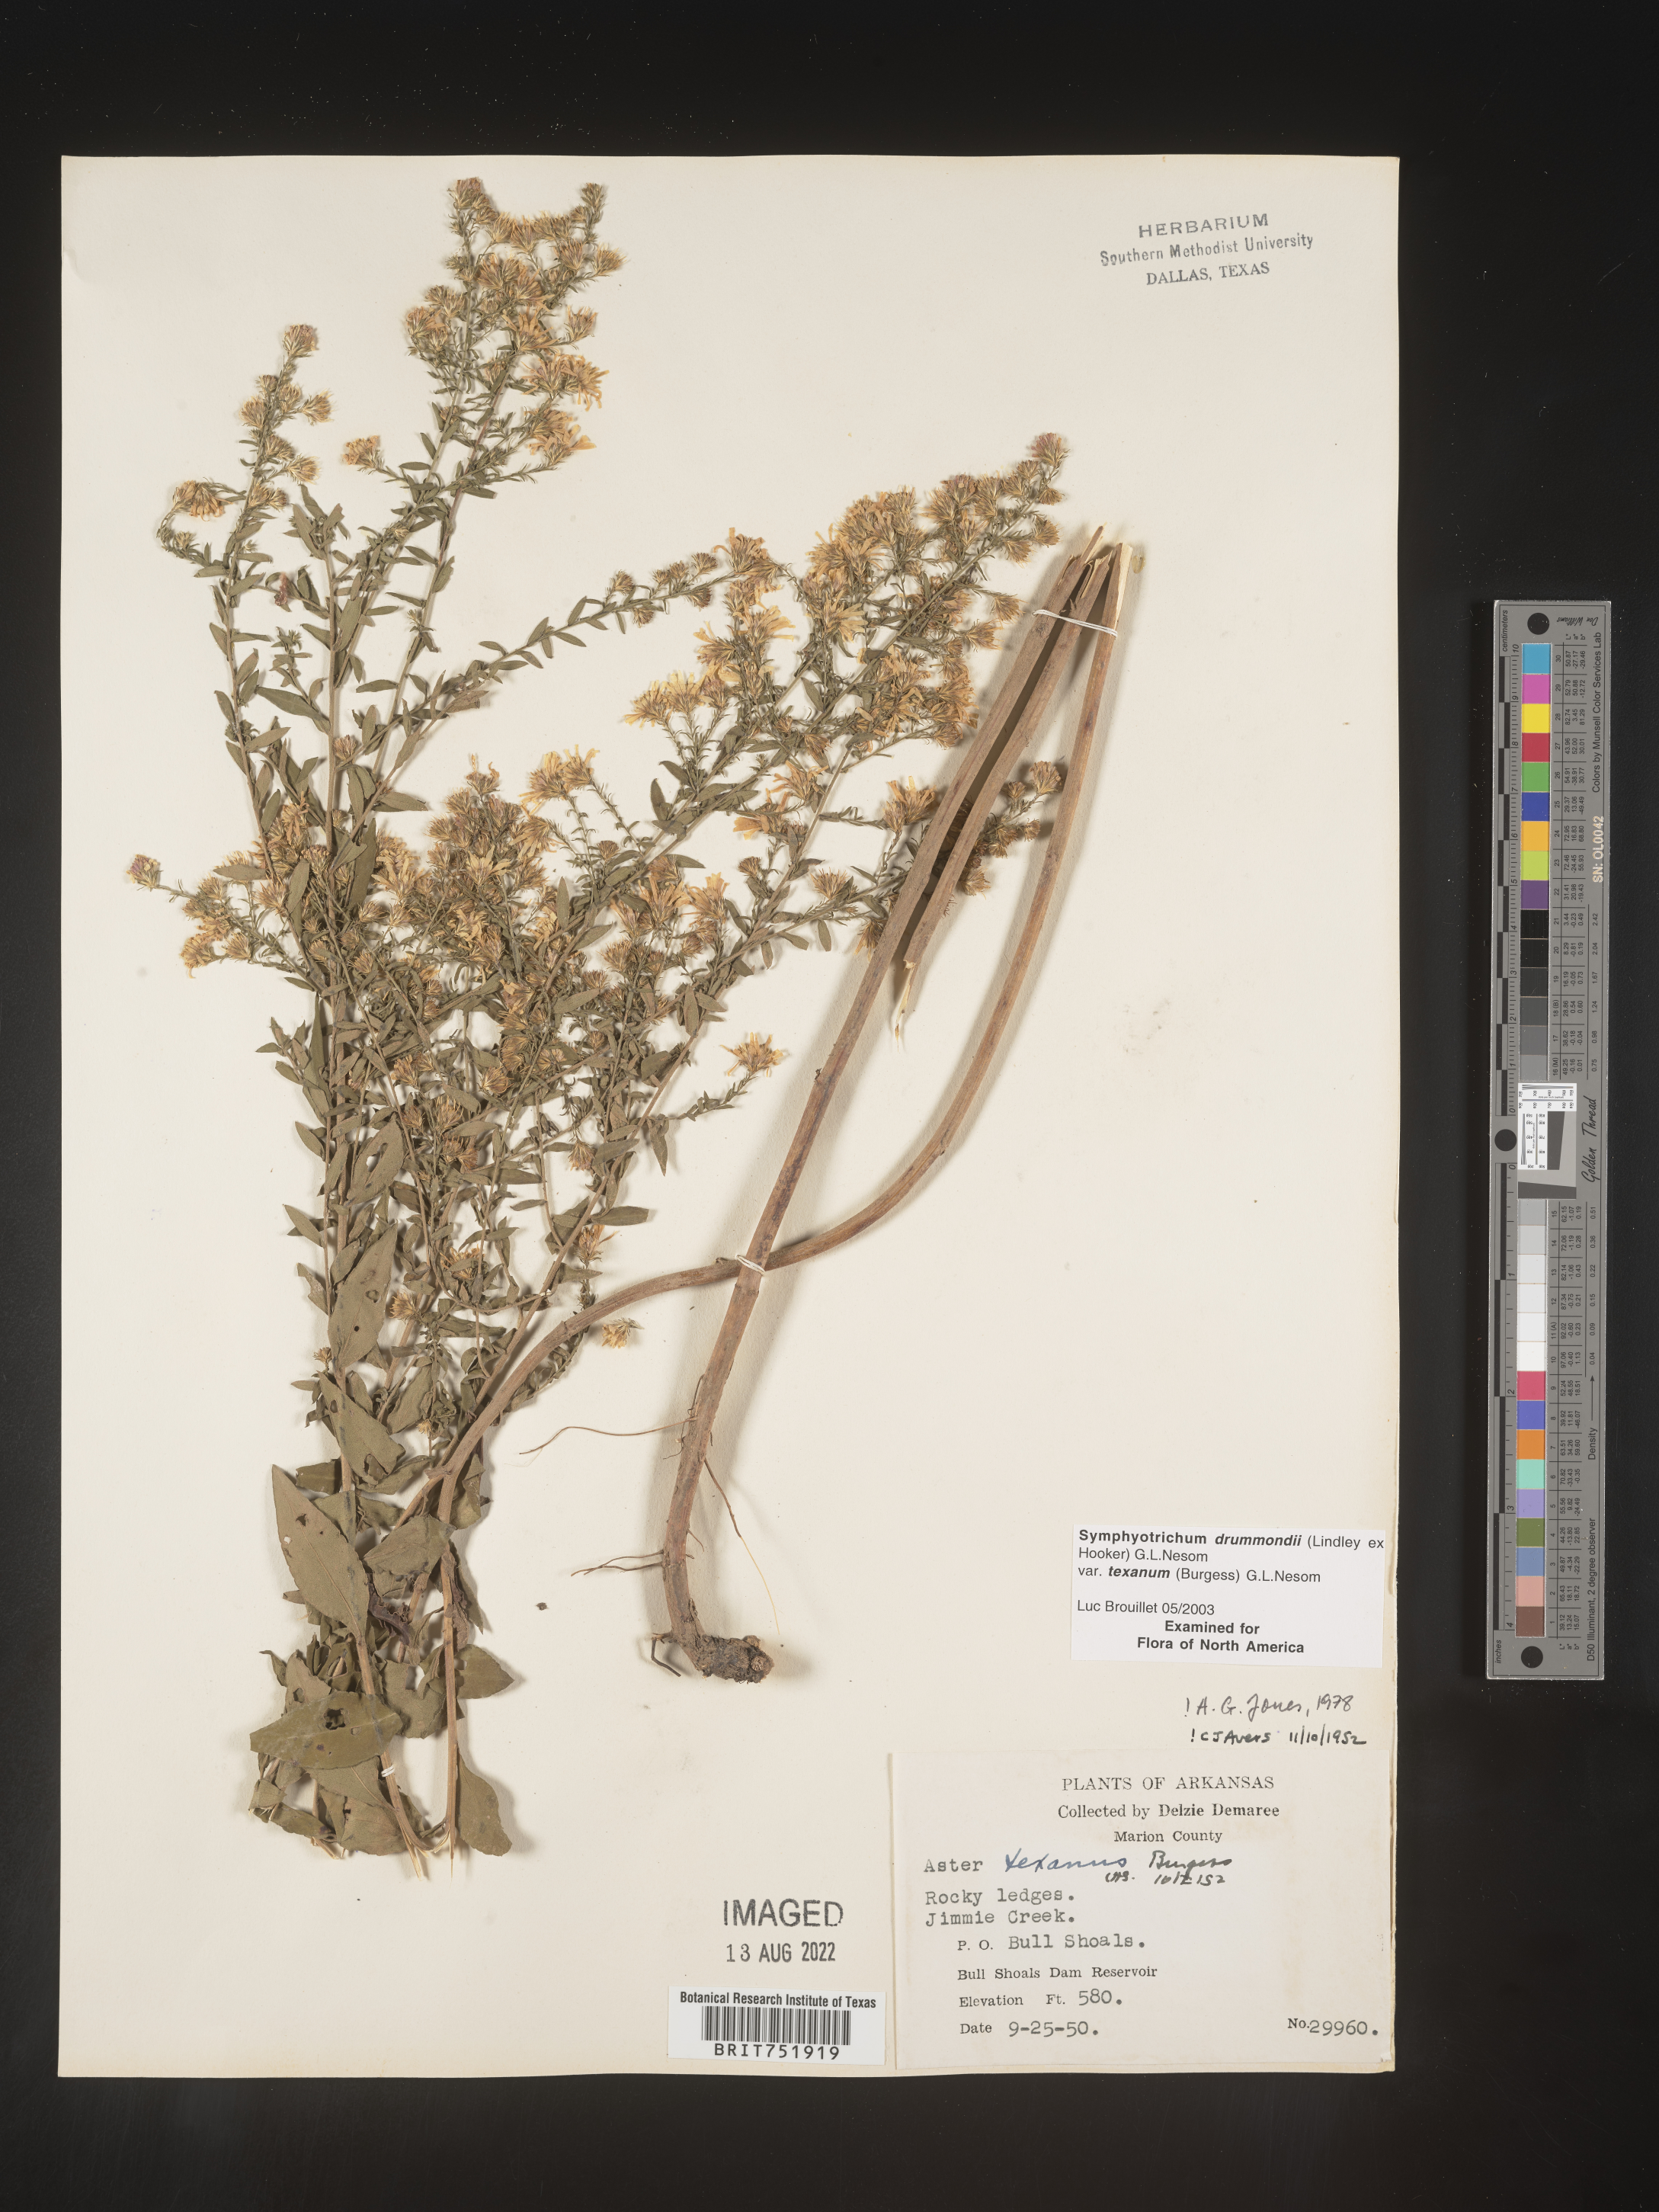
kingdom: Plantae
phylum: Tracheophyta
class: Magnoliopsida
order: Asterales
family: Asteraceae
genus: Symphyotrichum
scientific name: Symphyotrichum drummondii
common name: Drummond's aster
